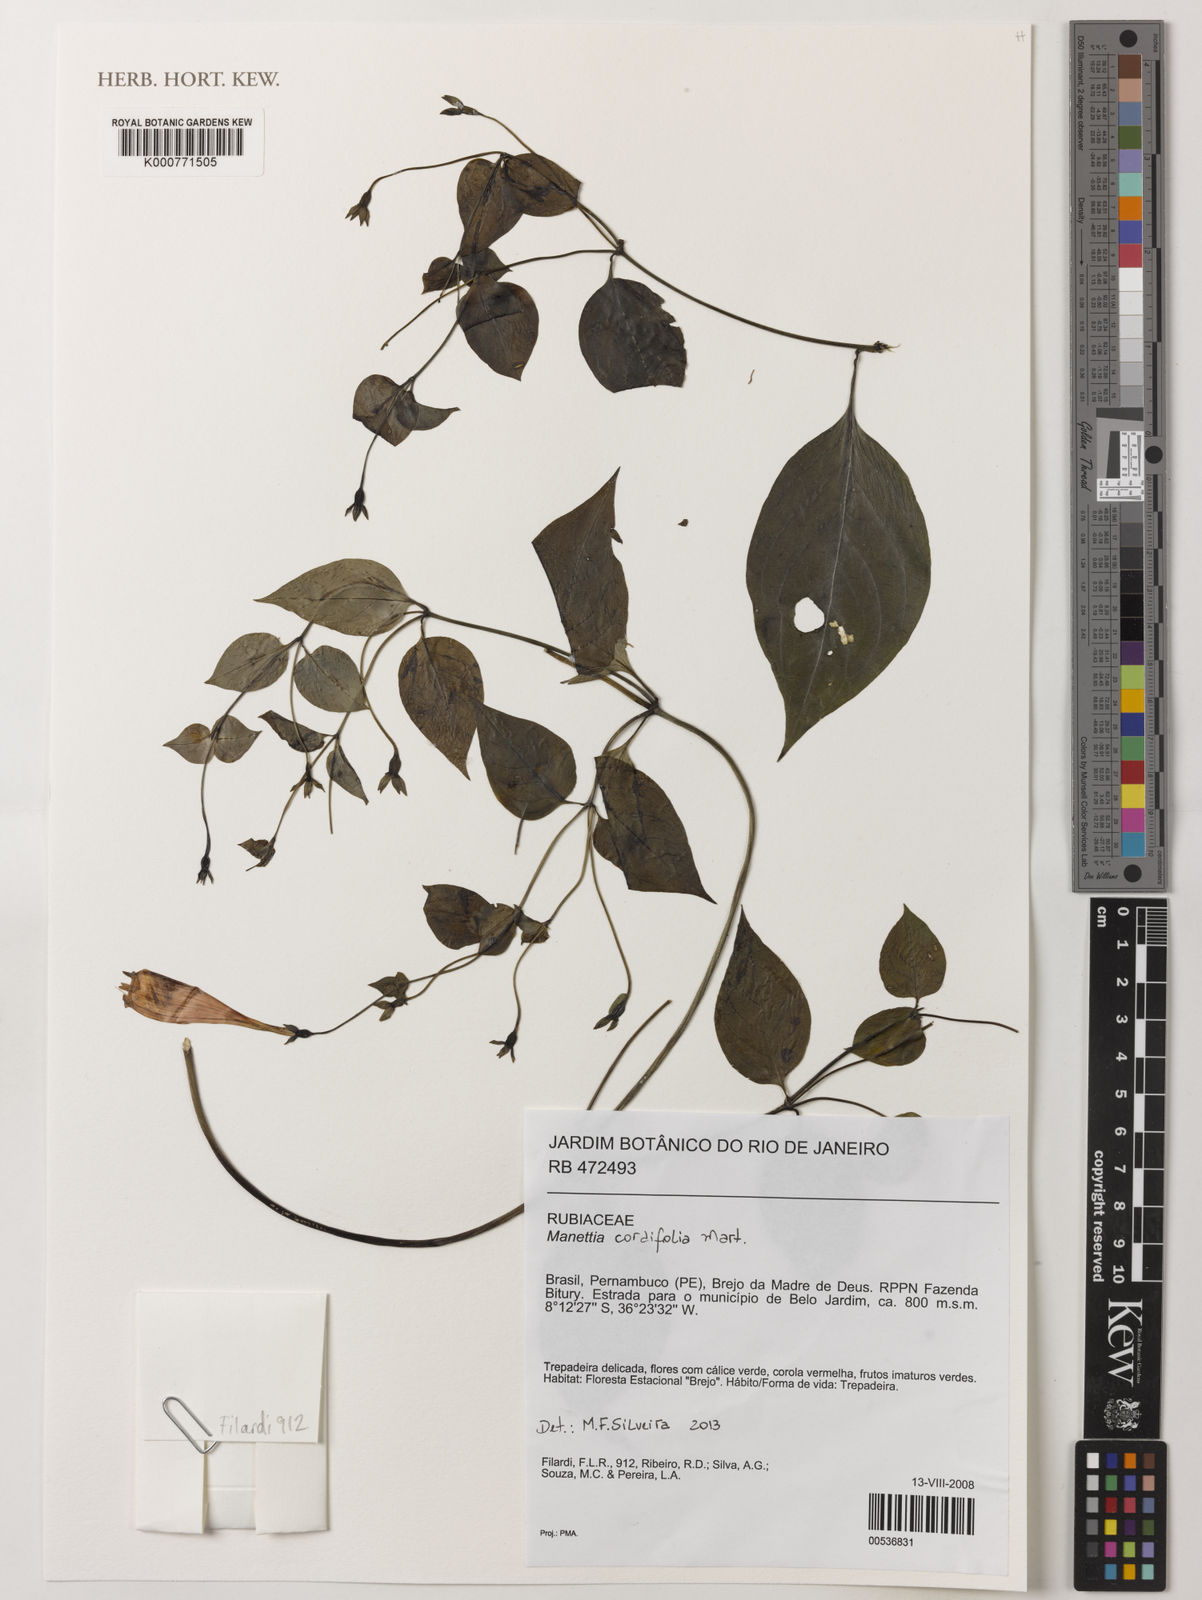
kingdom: Plantae
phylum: Tracheophyta
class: Magnoliopsida
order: Gentianales
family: Rubiaceae
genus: Manettia
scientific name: Manettia cordifolia
